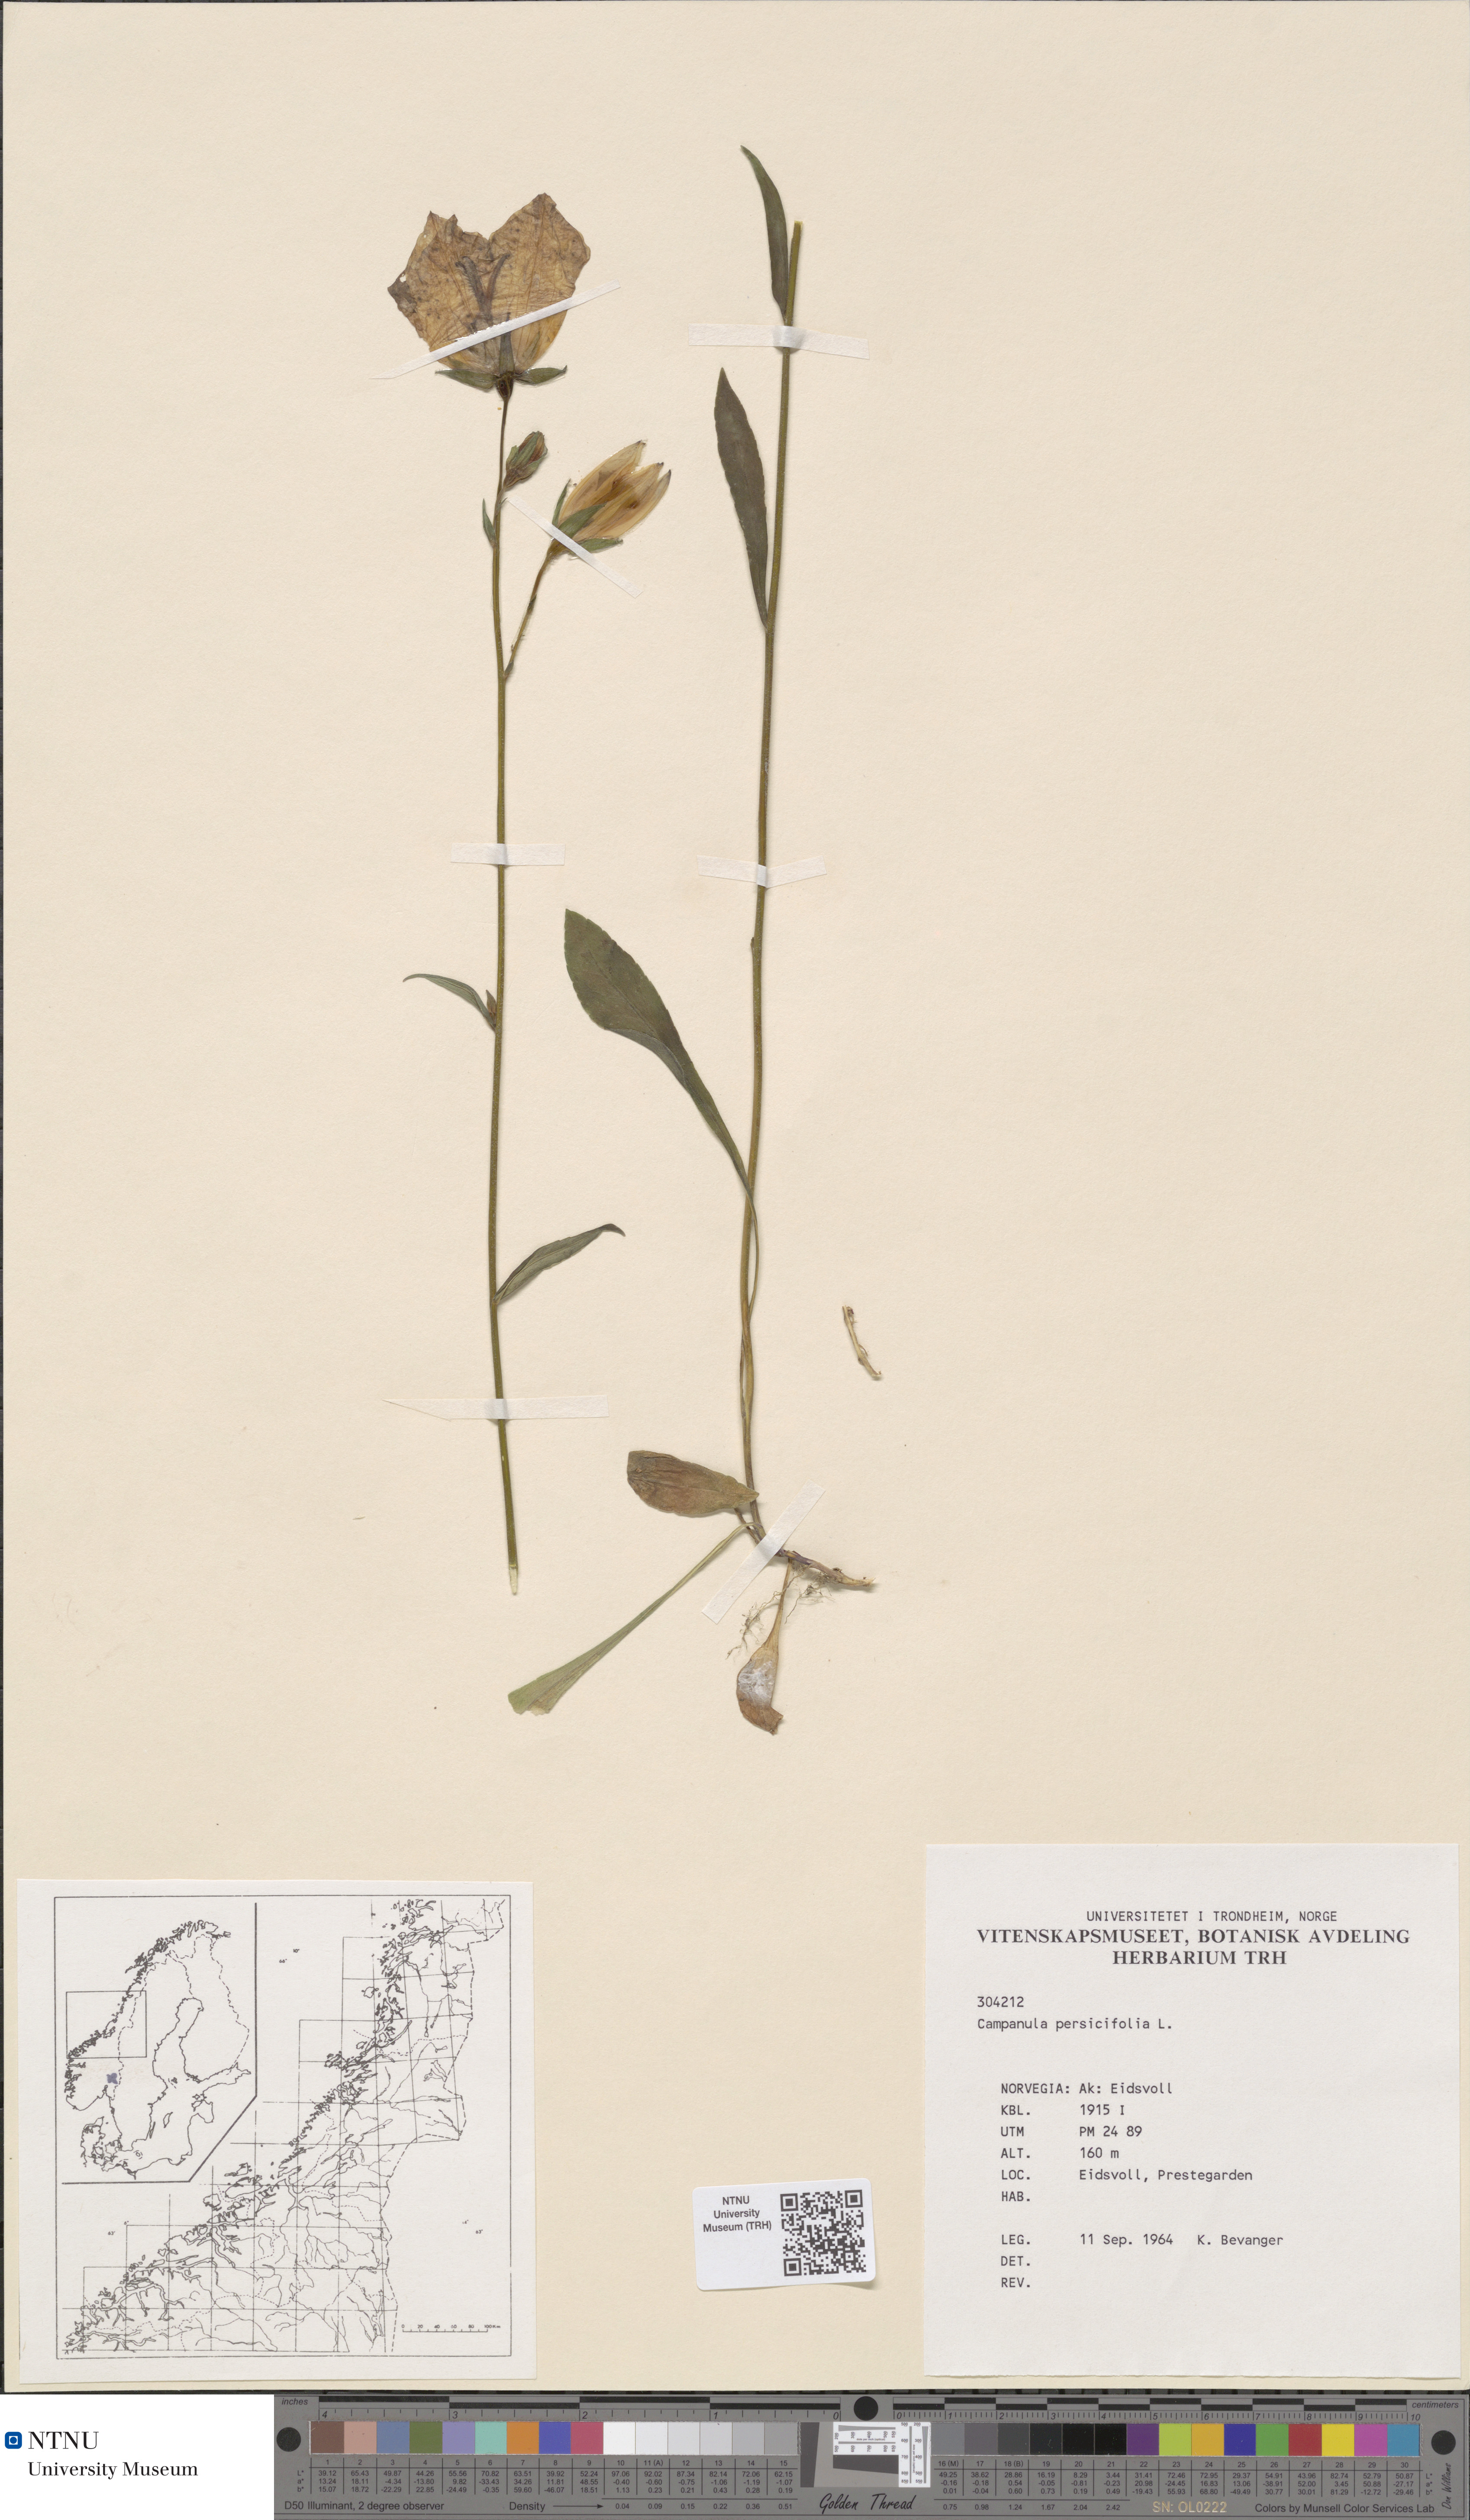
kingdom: Plantae
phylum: Tracheophyta
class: Magnoliopsida
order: Asterales
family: Campanulaceae
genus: Campanula
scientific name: Campanula persicifolia
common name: Peach-leaved bellflower
